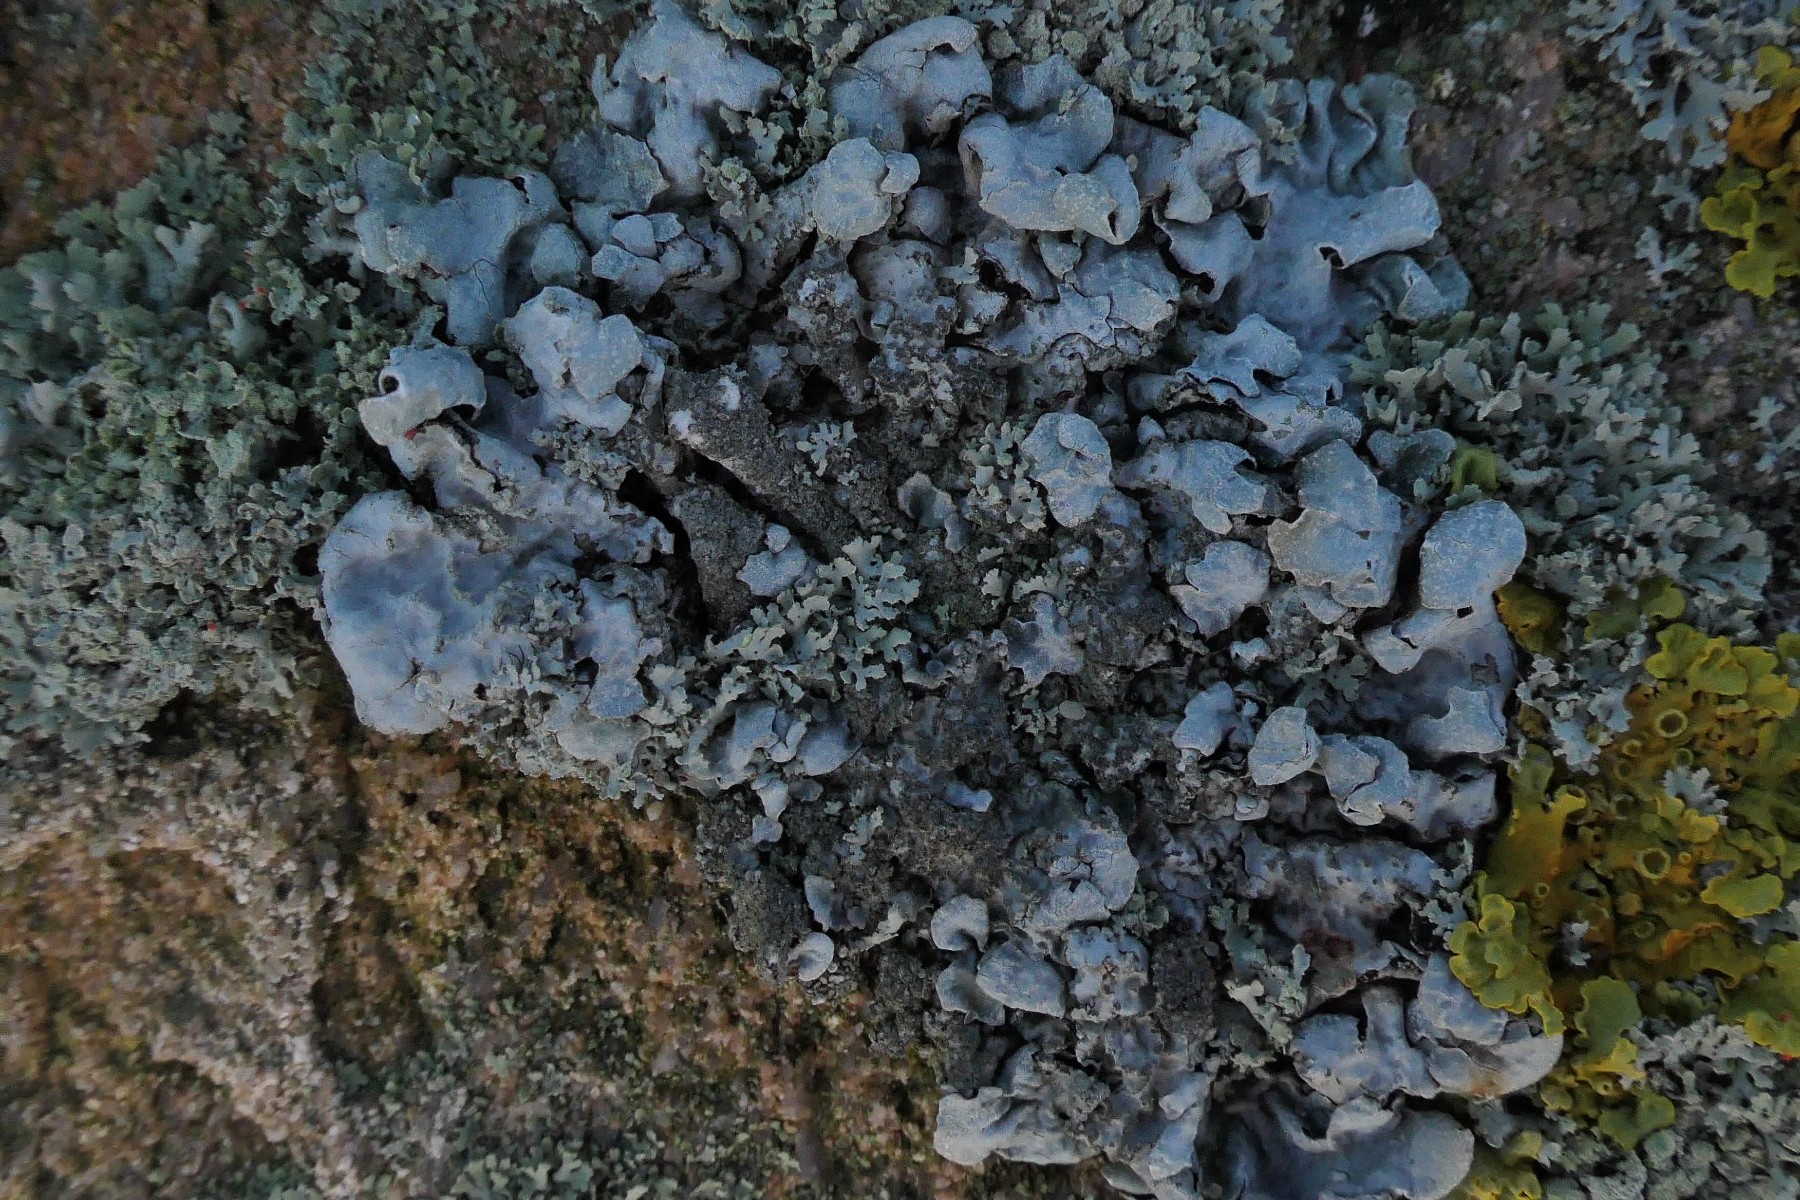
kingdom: Fungi
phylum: Ascomycota
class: Lecanoromycetes
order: Lecanorales
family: Parmeliaceae
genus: Parmelia
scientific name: Parmelia sulcata
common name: rynket skållav
